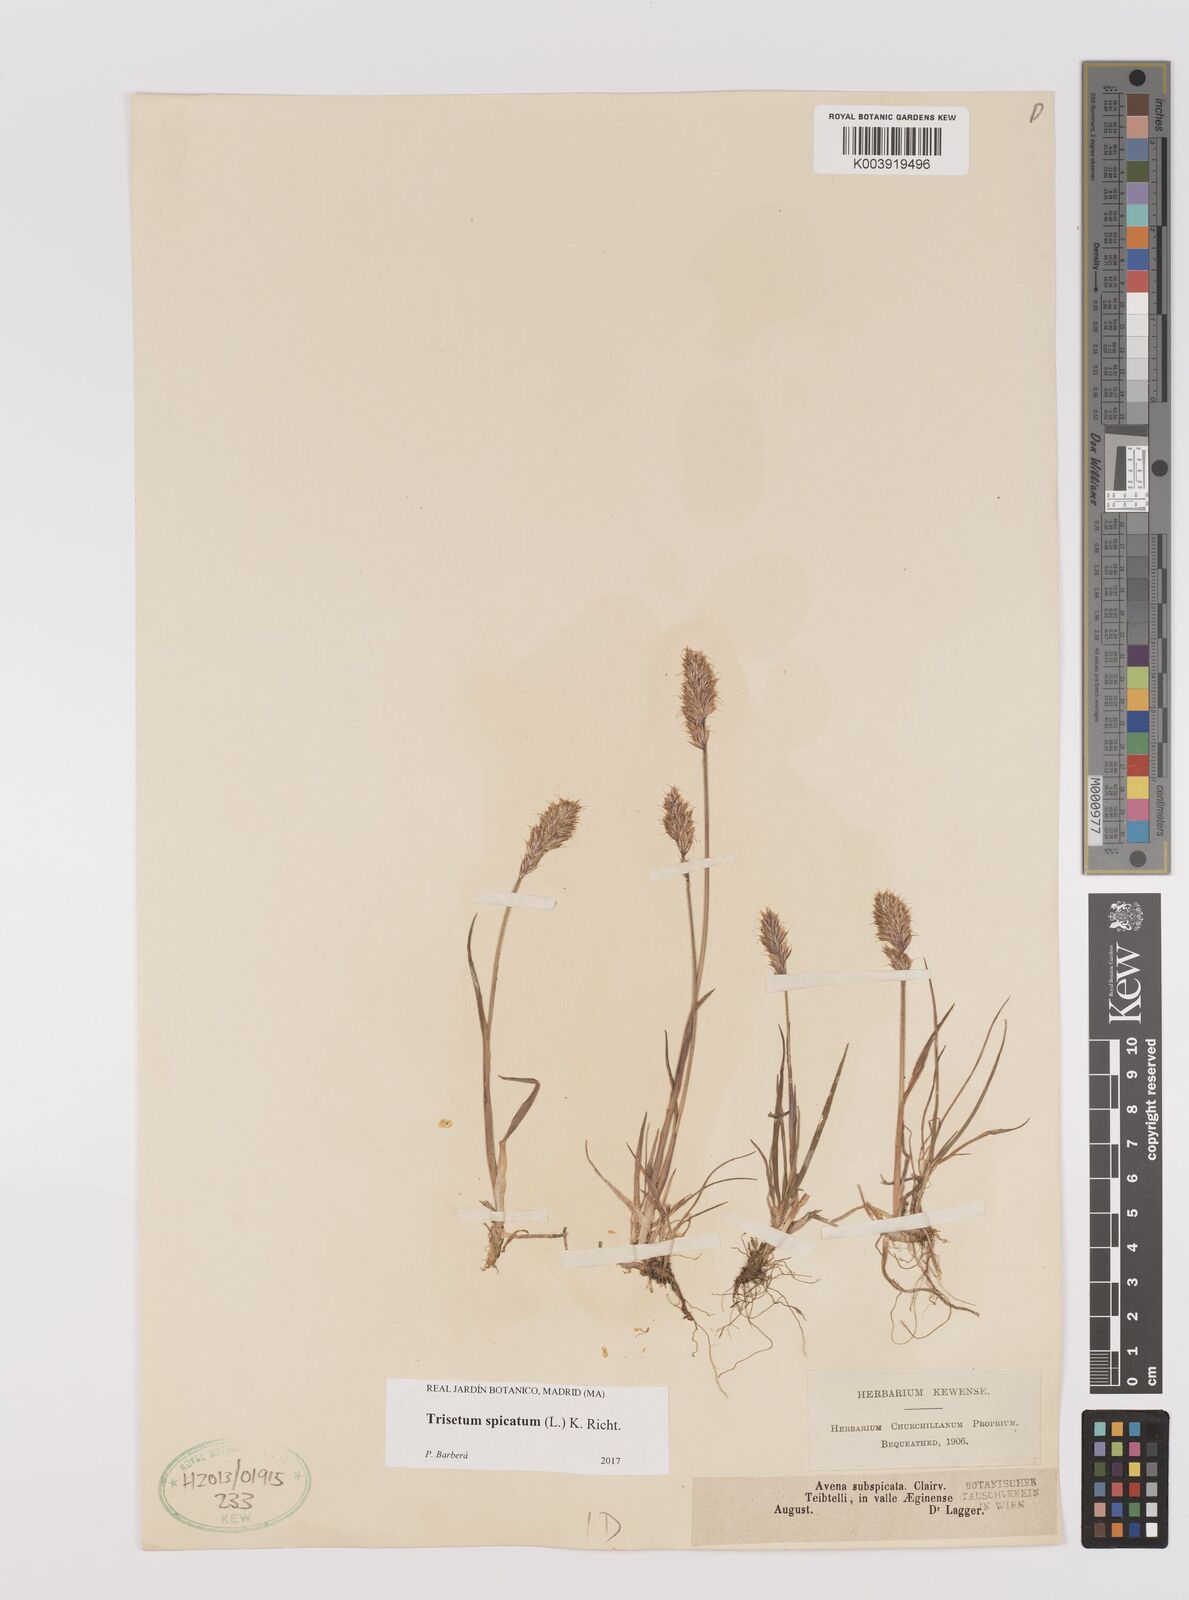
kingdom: Plantae
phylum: Tracheophyta
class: Liliopsida
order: Poales
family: Poaceae
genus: Koeleria
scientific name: Koeleria spicata
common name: Mountain trisetum
